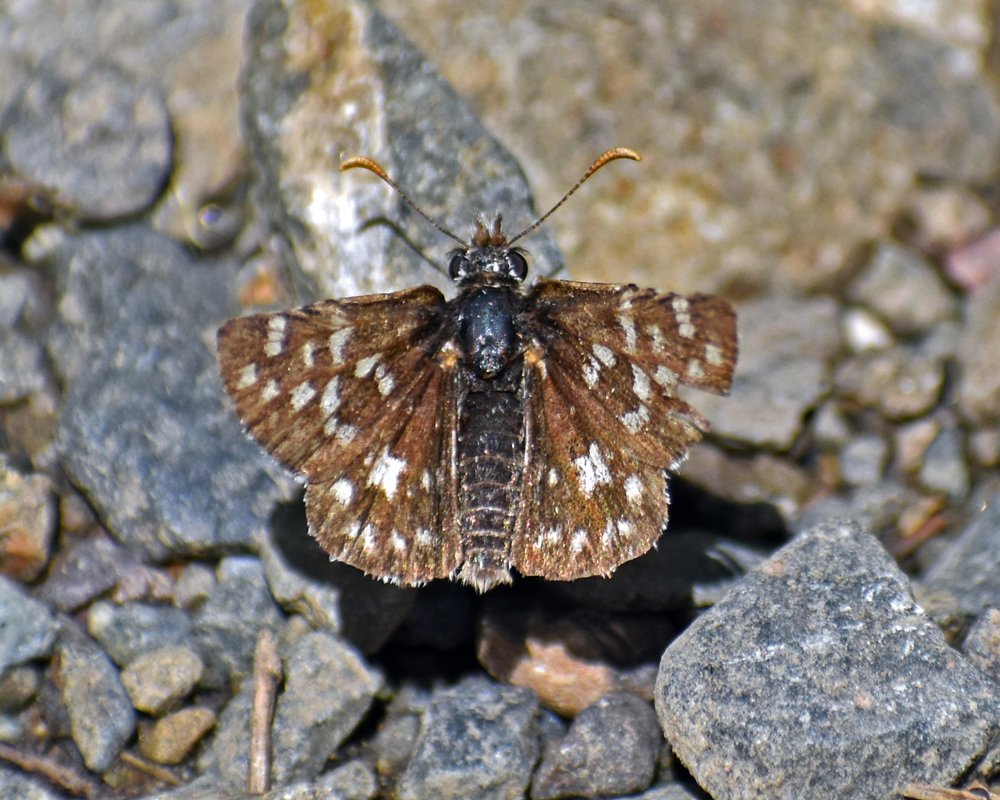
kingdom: Animalia
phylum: Arthropoda
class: Insecta
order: Lepidoptera
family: Hesperiidae
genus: Pyrgus
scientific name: Pyrgus ruralis
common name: Two-banded Checkered-Skipper
